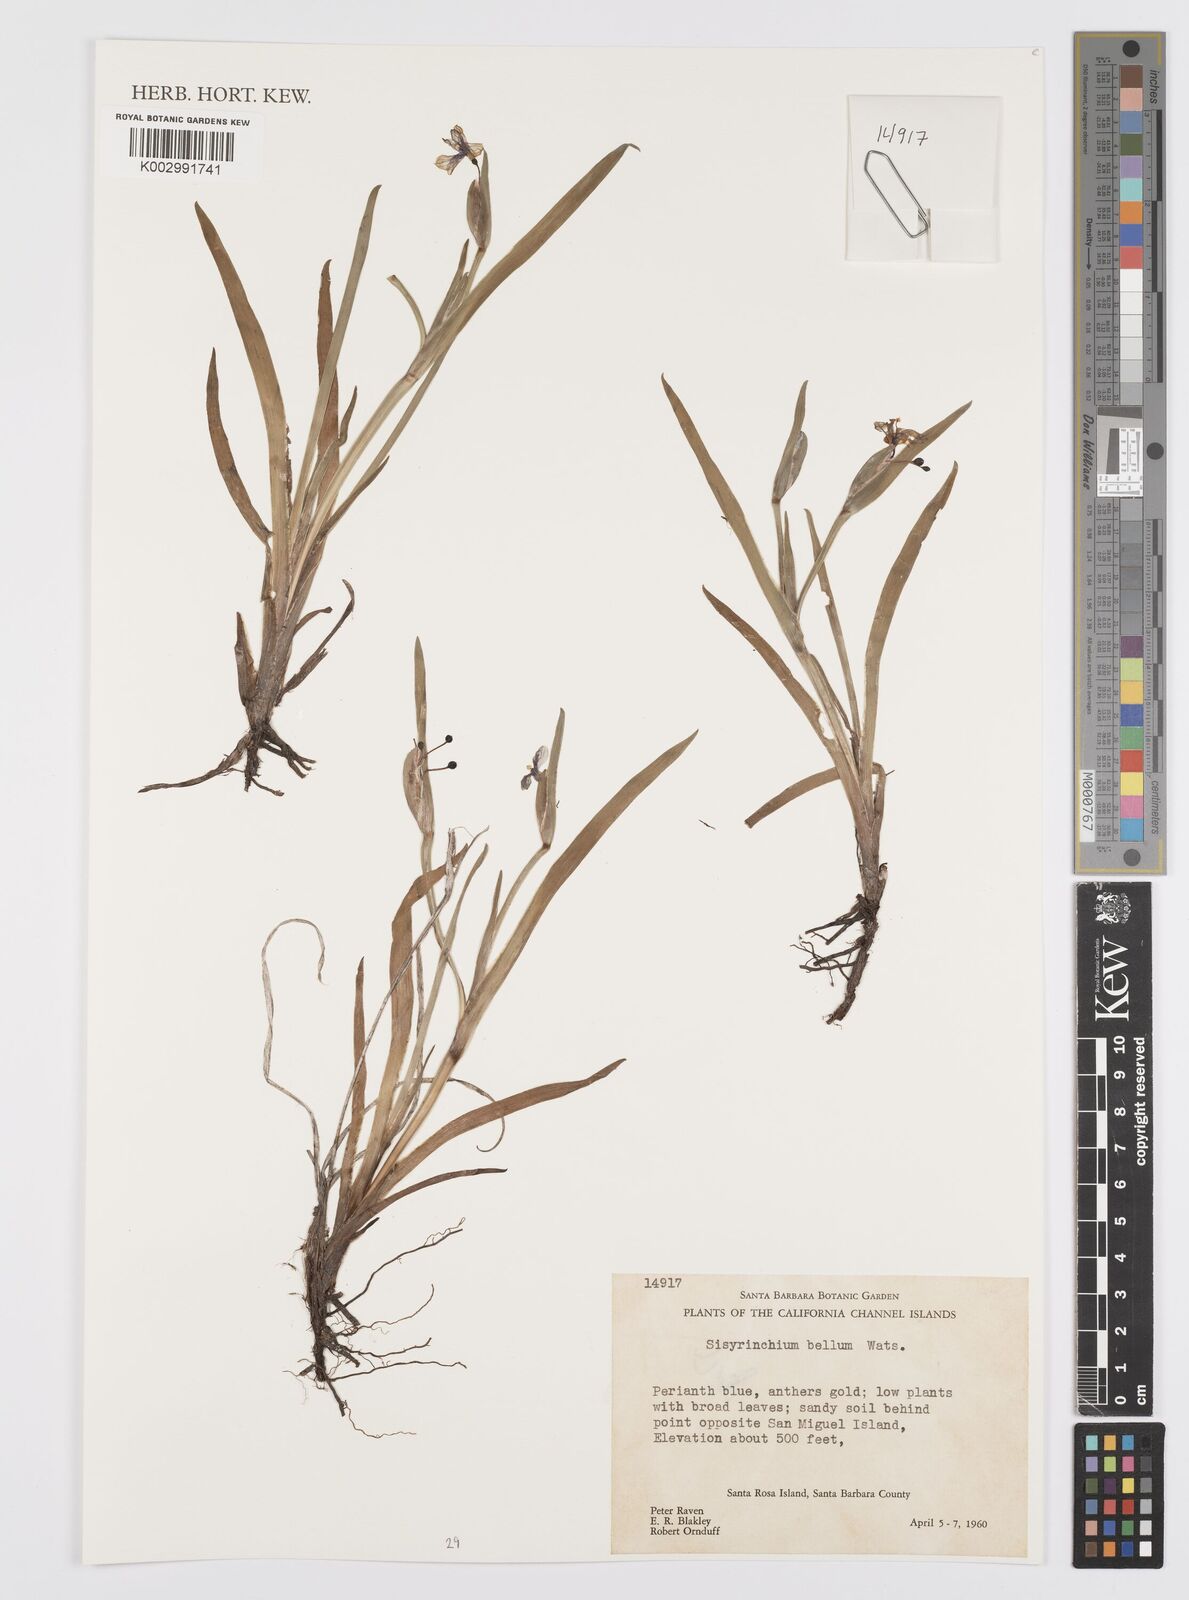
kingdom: Plantae
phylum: Tracheophyta
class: Liliopsida
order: Asparagales
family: Iridaceae
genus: Sisyrinchium
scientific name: Sisyrinchium bellum
